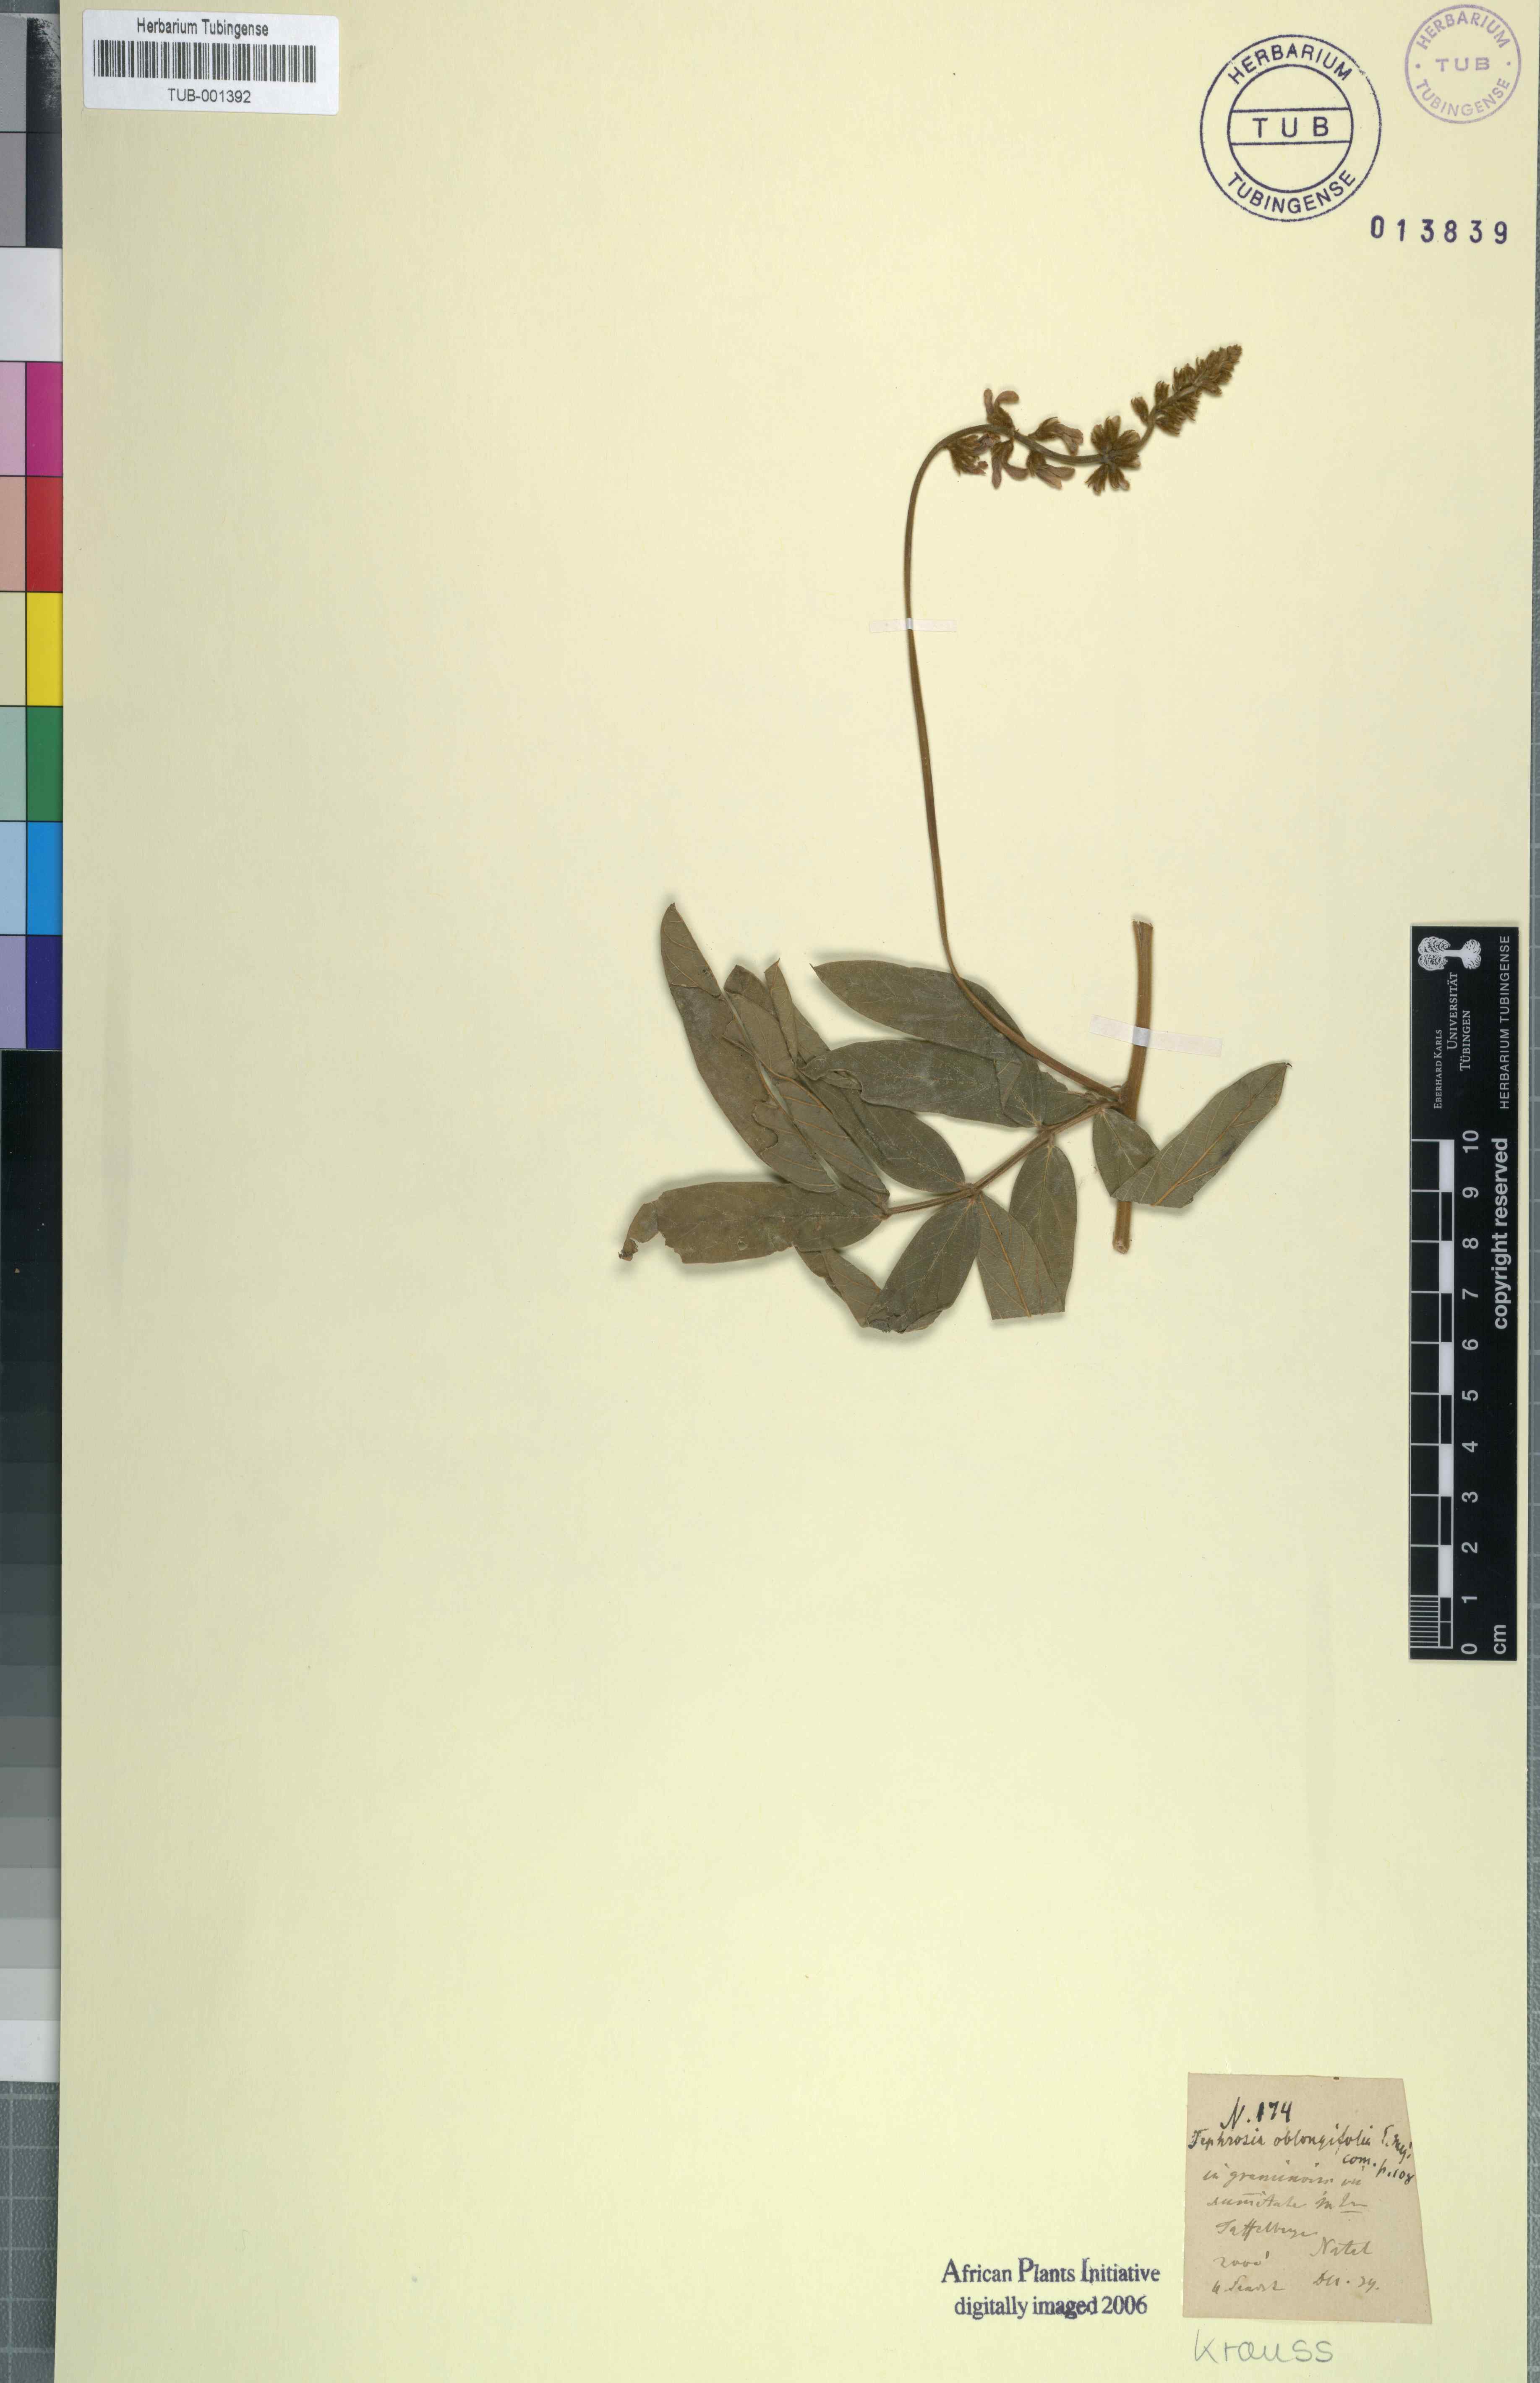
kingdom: Plantae
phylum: Tracheophyta
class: Magnoliopsida
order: Fabales
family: Fabaceae
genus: Ophrestia
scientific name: Ophrestia oblongifolia
